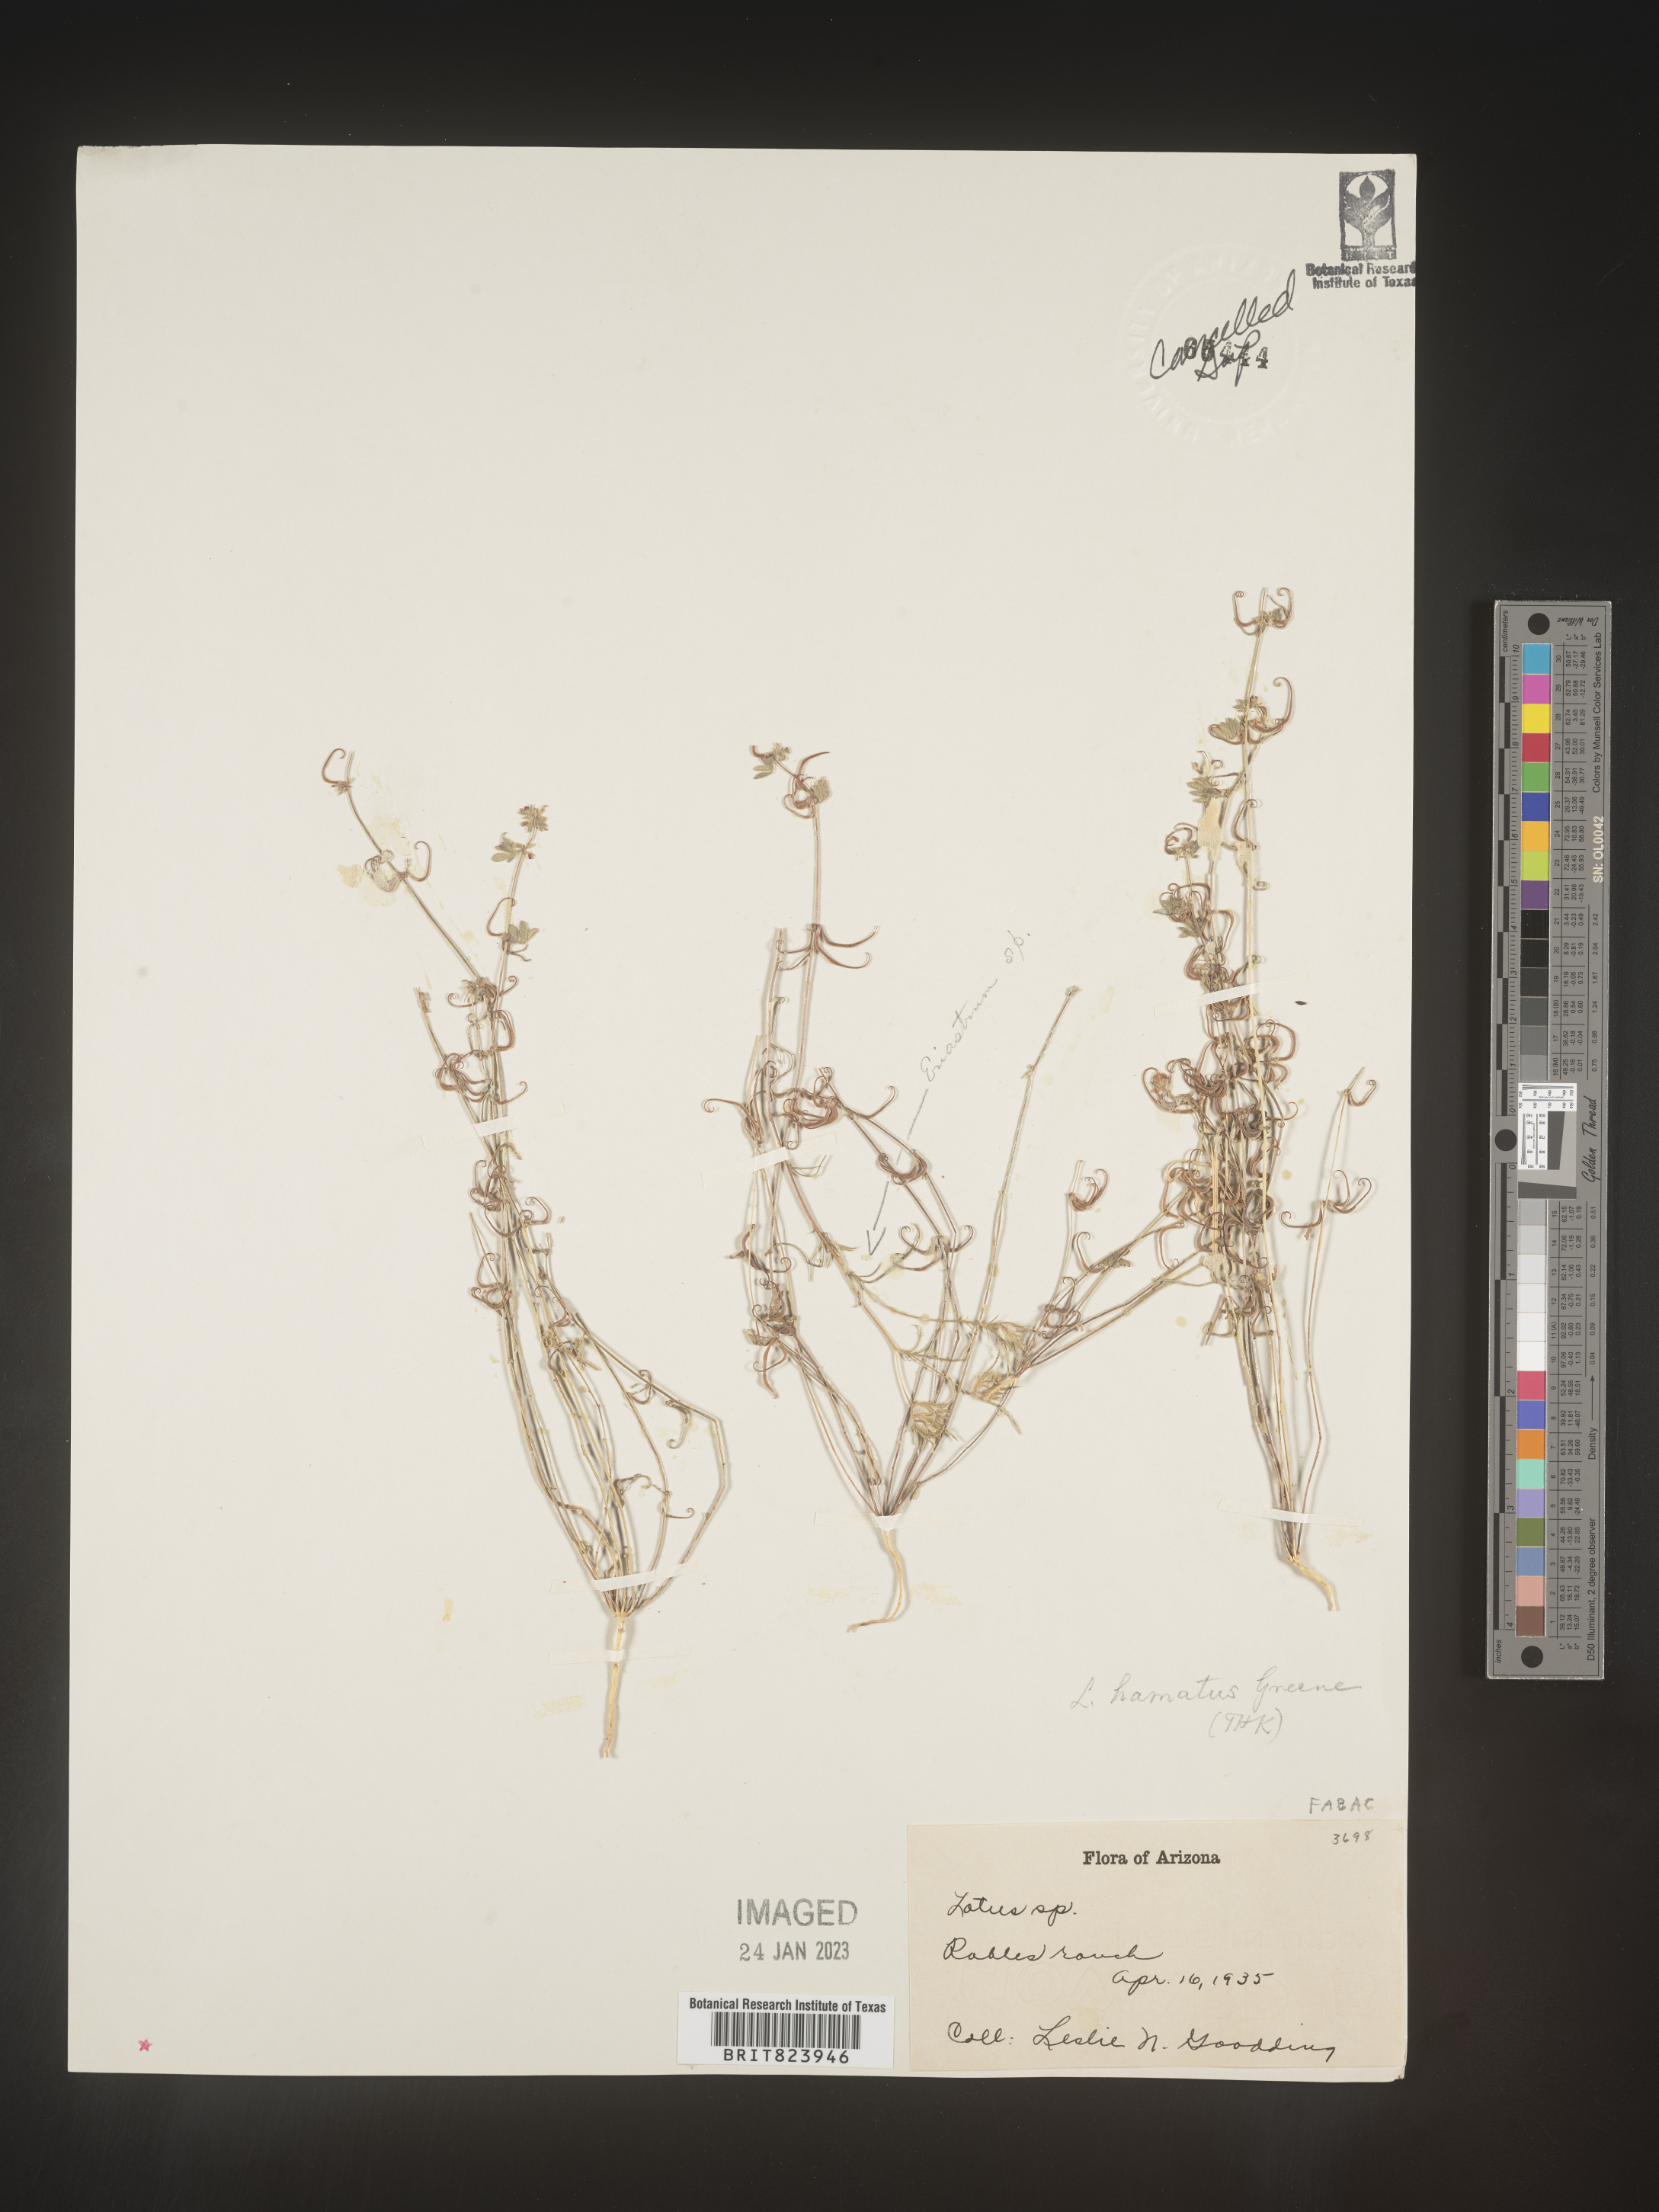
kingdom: Plantae
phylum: Tracheophyta
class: Magnoliopsida
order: Fabales
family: Fabaceae
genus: Lotus
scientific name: Lotus
